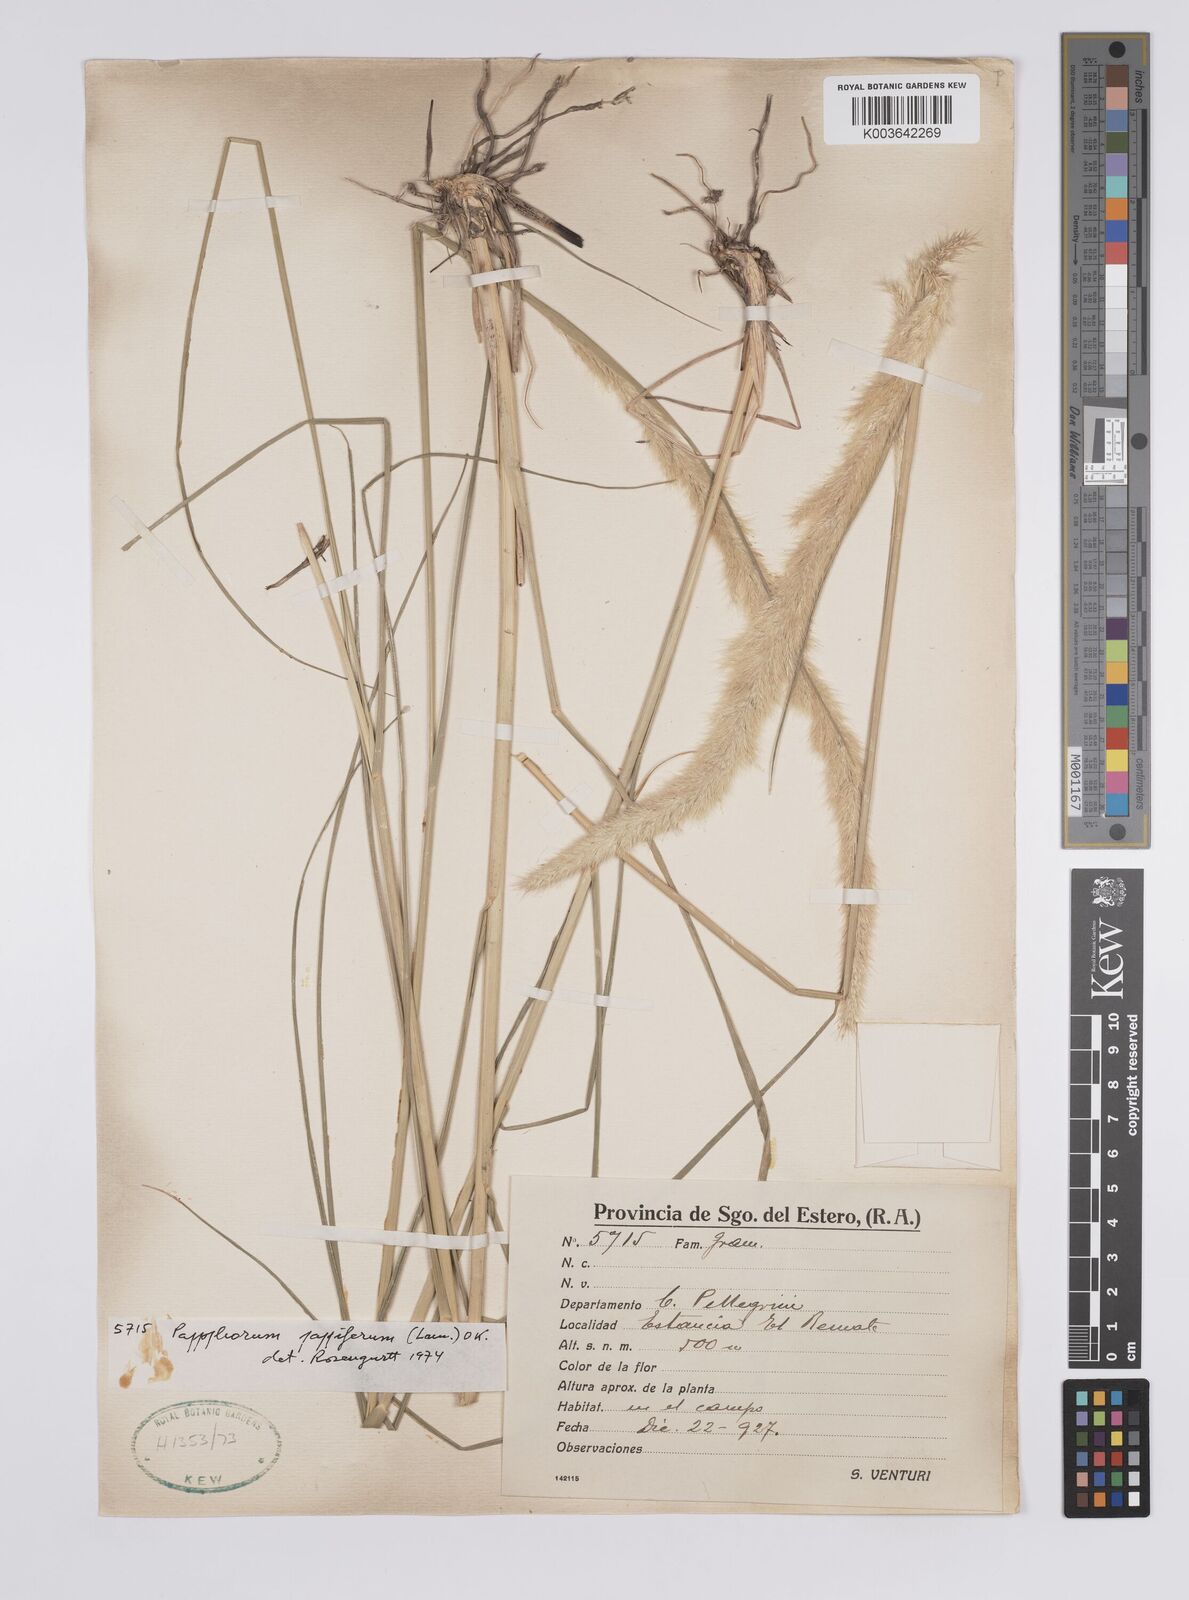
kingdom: Plantae
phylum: Tracheophyta
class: Liliopsida
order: Poales
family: Poaceae
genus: Pappophorum
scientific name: Pappophorum pappiferum
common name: Crabgrass
